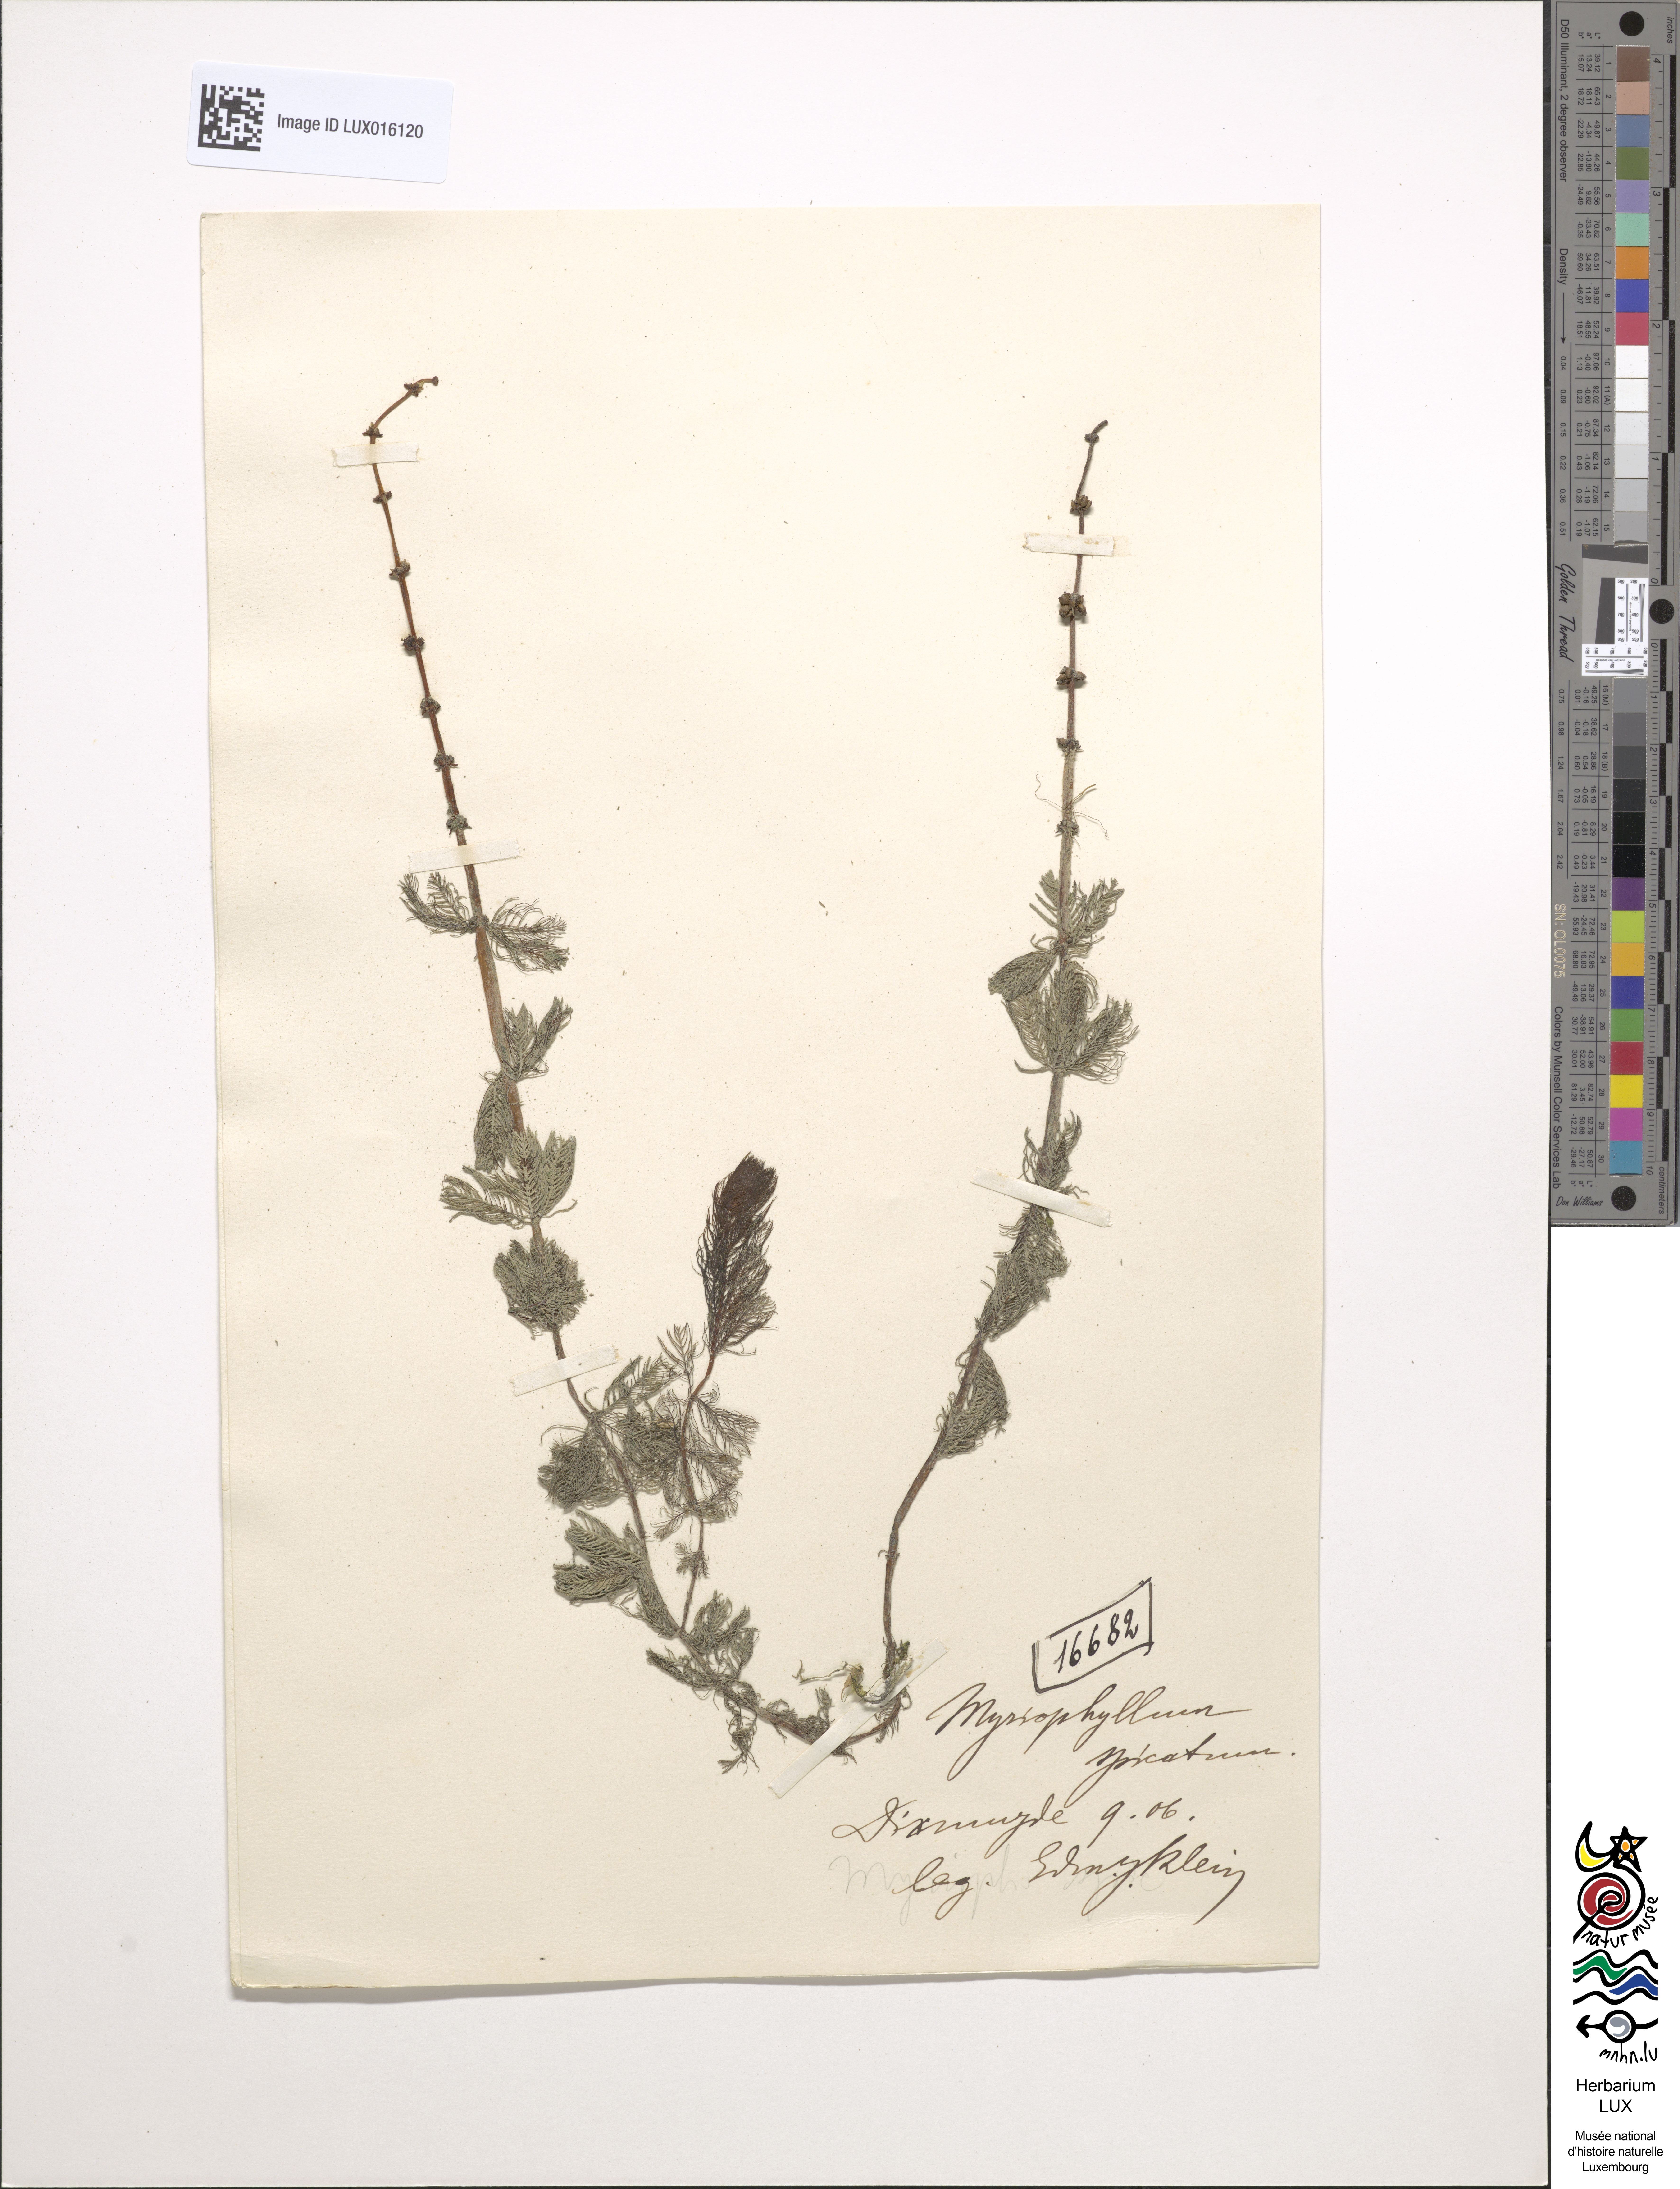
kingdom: Plantae
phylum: Tracheophyta
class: Magnoliopsida
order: Saxifragales
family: Haloragaceae
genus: Myriophyllum
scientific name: Myriophyllum spicatum
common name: Spiked water-milfoil
